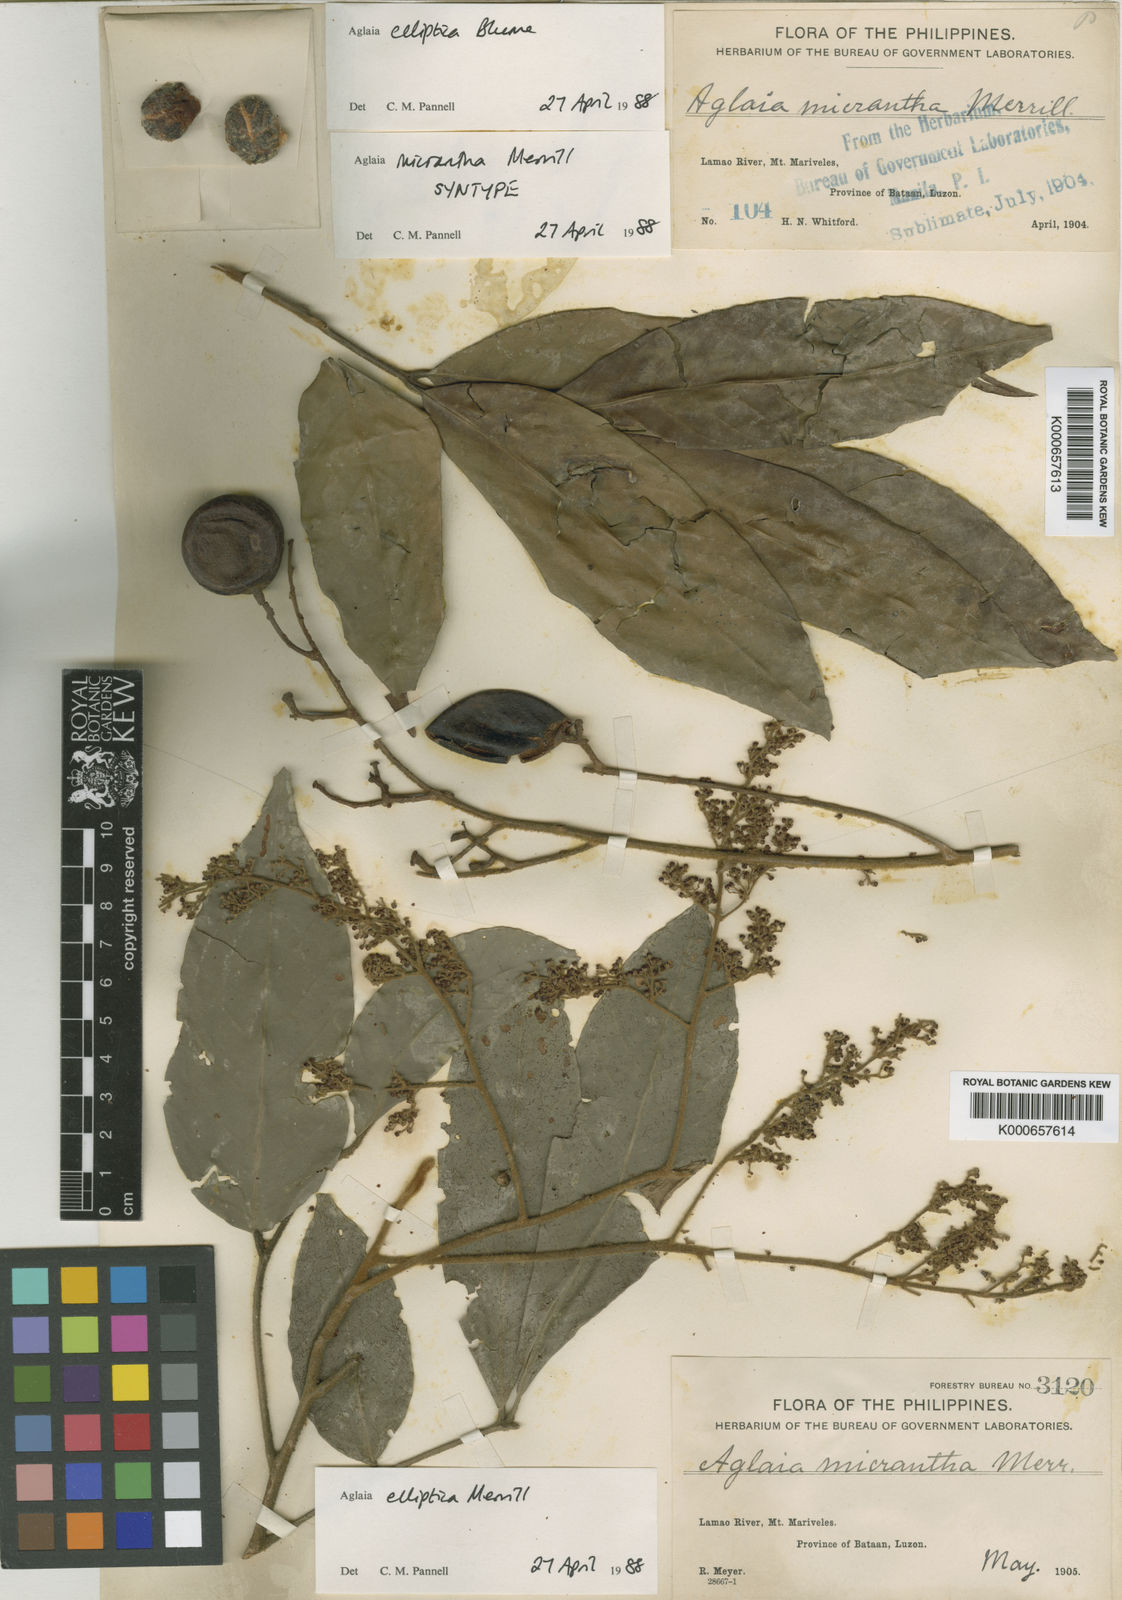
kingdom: Plantae
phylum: Tracheophyta
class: Magnoliopsida
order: Sapindales
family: Meliaceae
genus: Aglaia
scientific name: Aglaia
